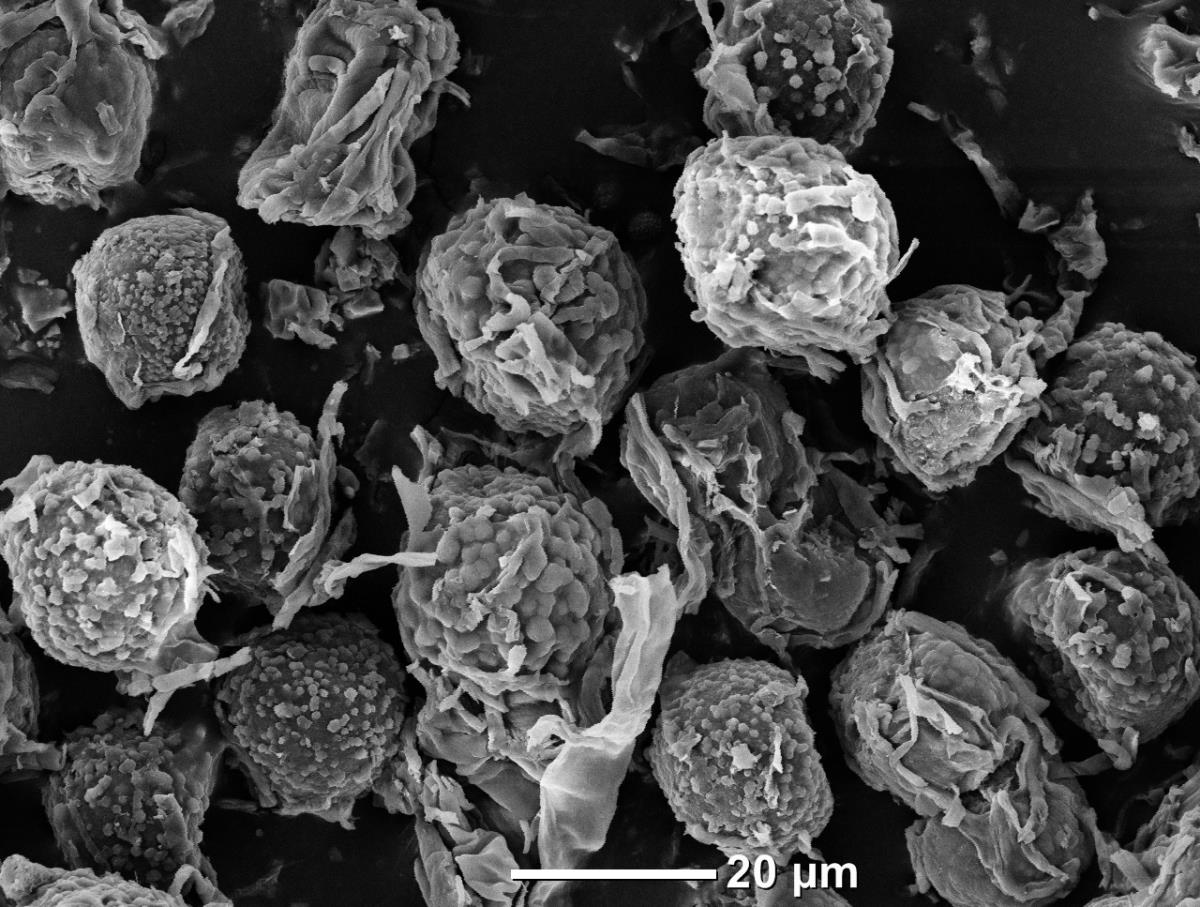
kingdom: Fungi
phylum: Ascomycota
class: Pezizomycetes
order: Pezizales
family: Tuberaceae
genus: Dingleya
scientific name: Dingleya turbinata
